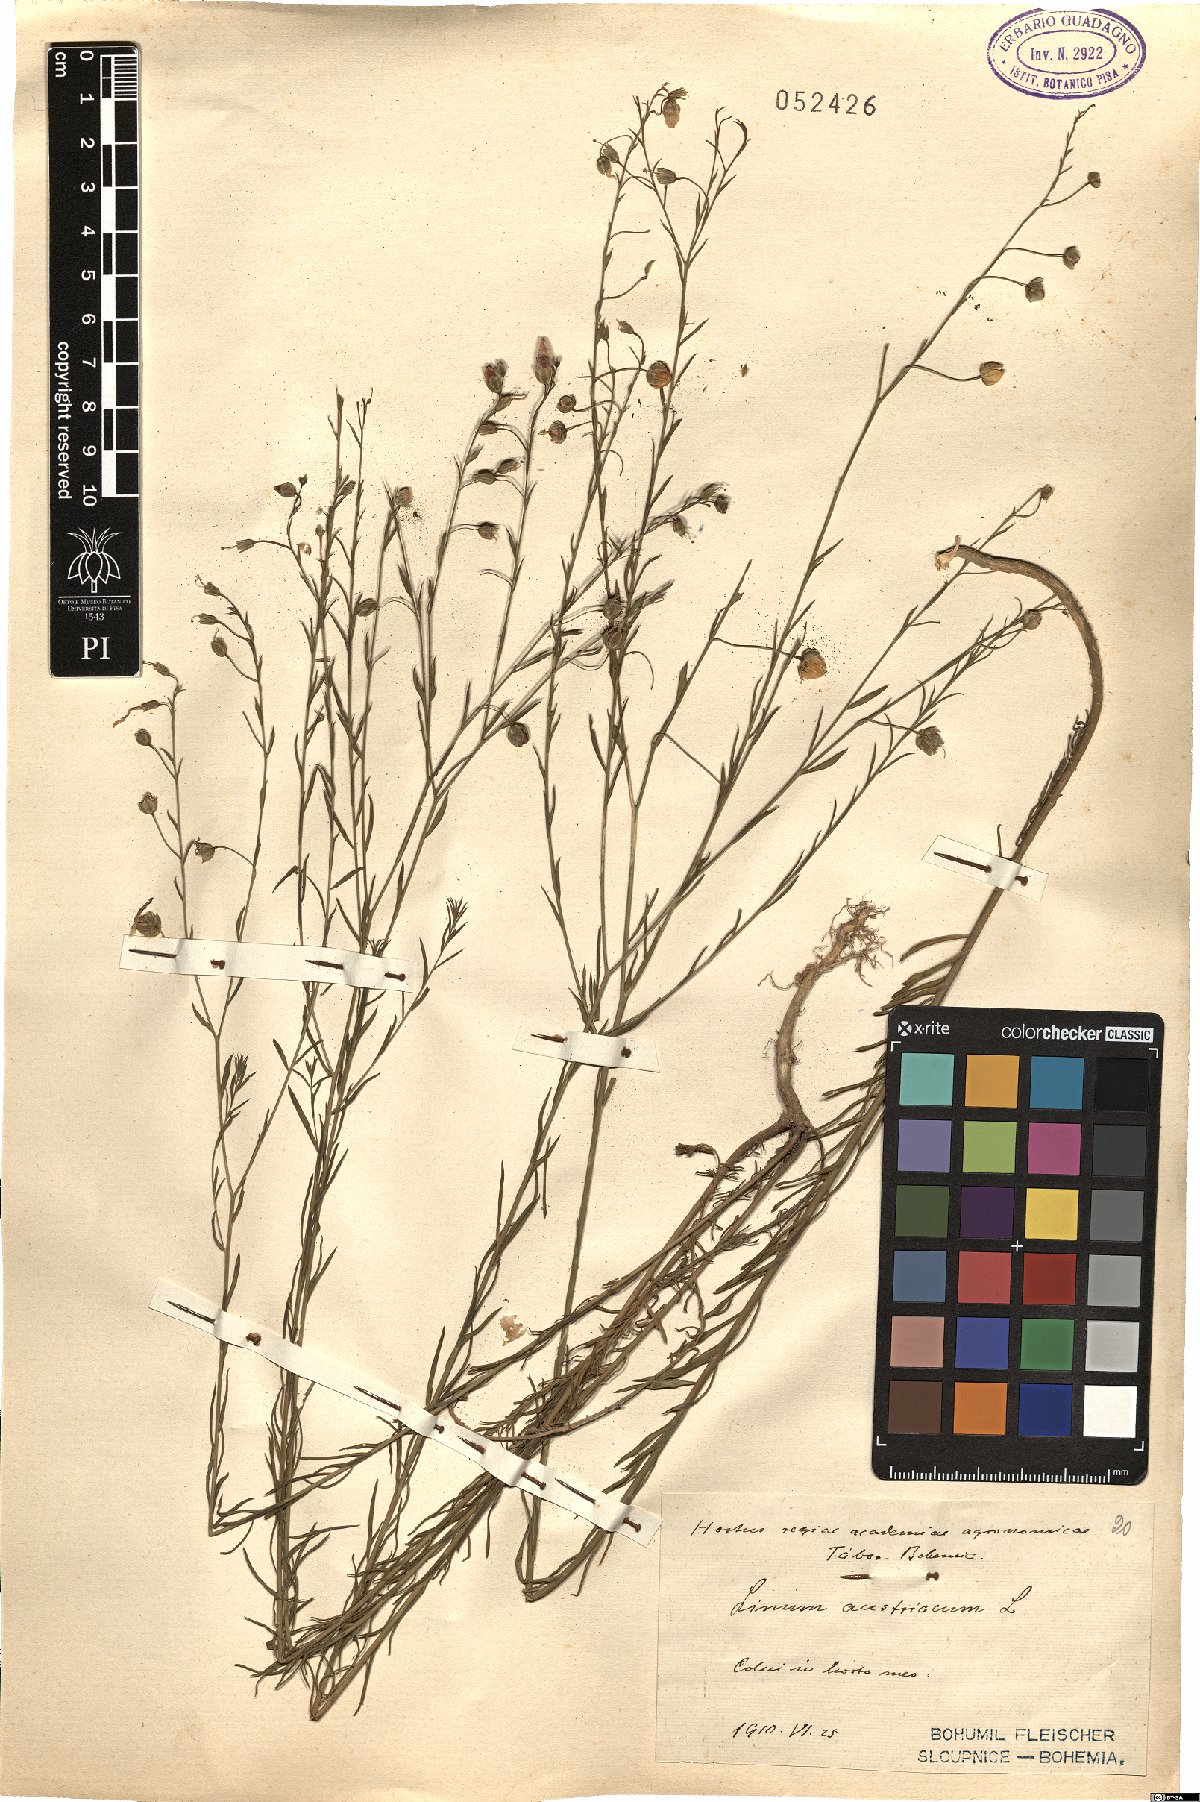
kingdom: Plantae
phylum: Tracheophyta
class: Magnoliopsida
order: Malpighiales
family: Linaceae
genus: Linum
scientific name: Linum austriacum
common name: Austrian flax
